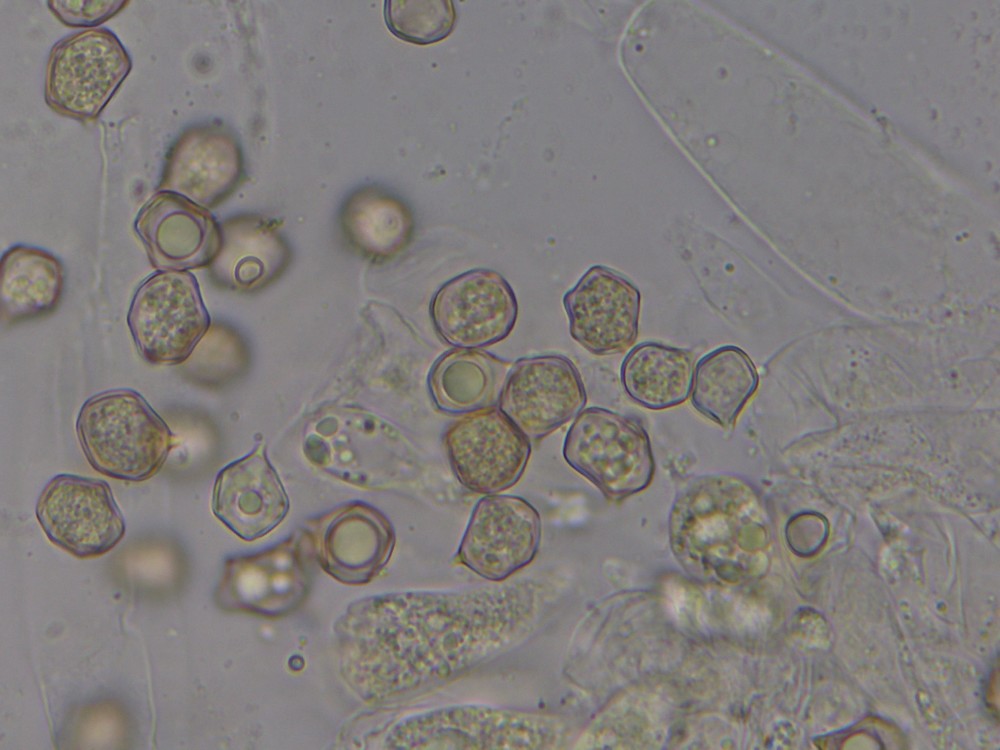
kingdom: Fungi
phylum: Basidiomycota
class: Agaricomycetes
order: Agaricales
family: Entolomataceae
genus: Entoloma
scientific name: Entoloma
